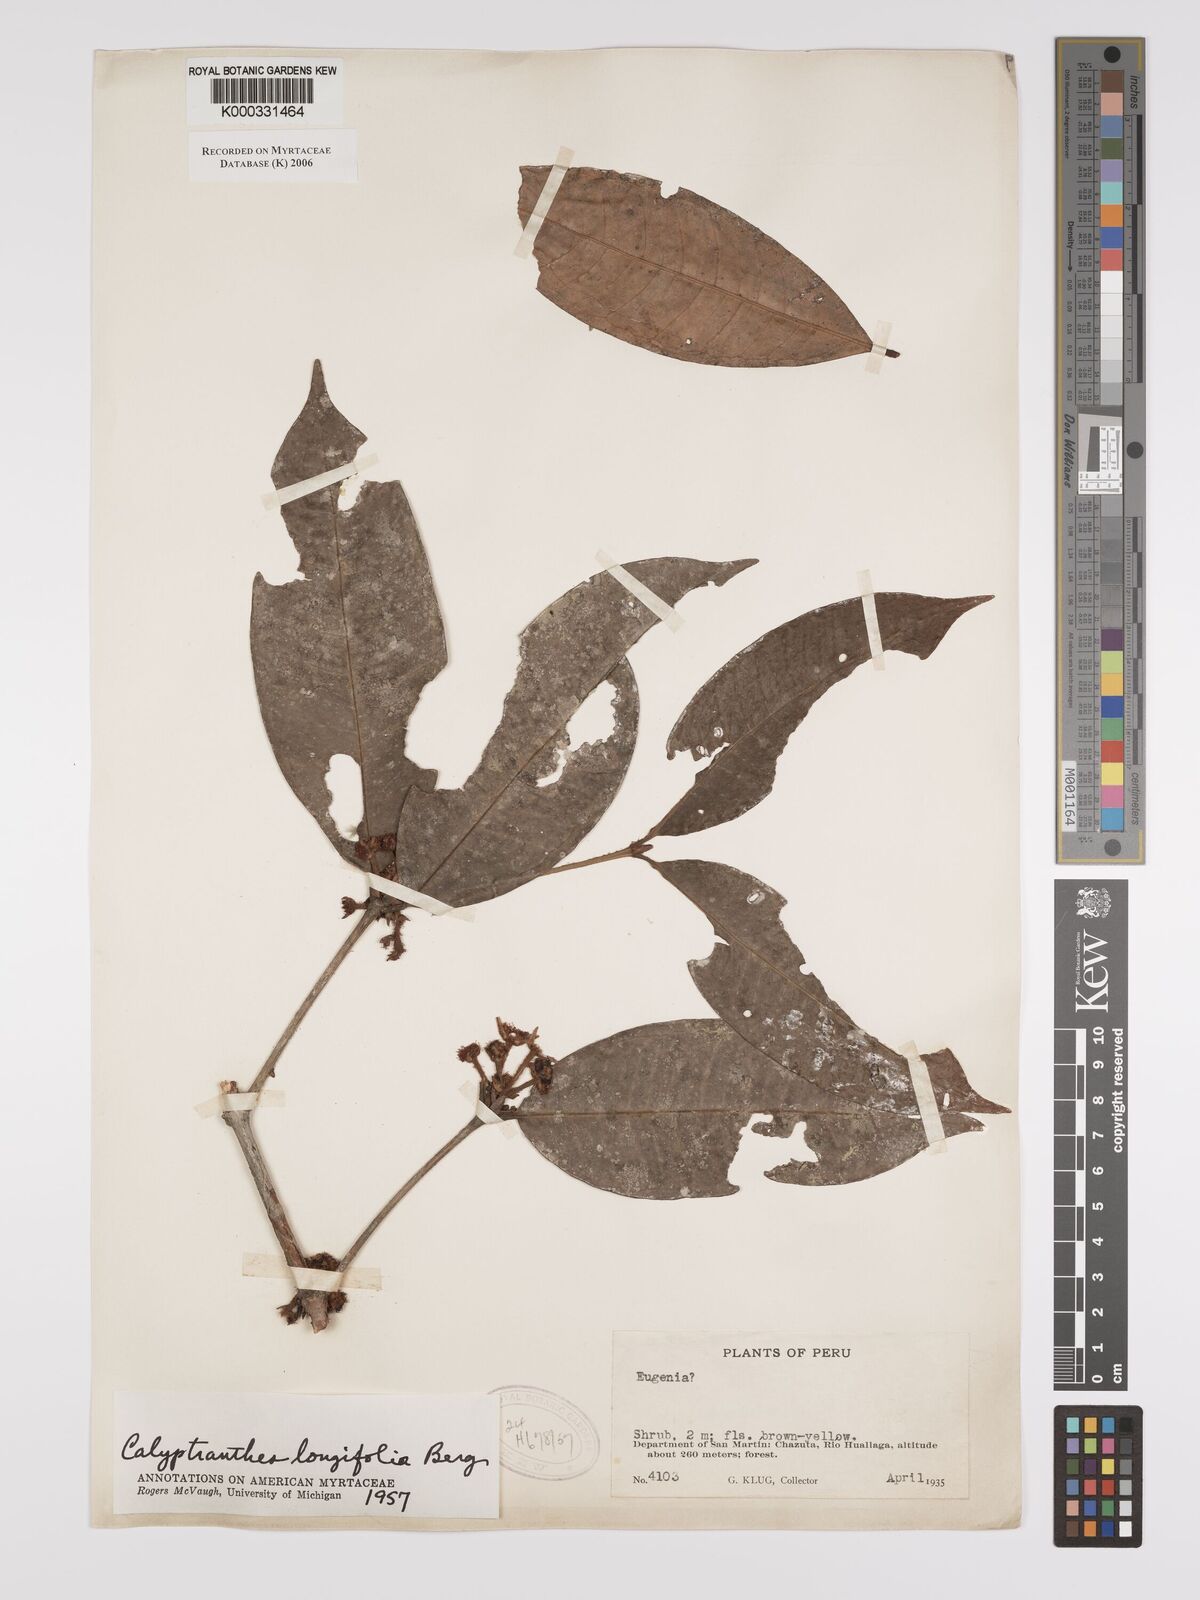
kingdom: Plantae
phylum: Tracheophyta
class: Magnoliopsida
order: Myrtales
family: Myrtaceae
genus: Myrcia
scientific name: Myrcia telephylla
